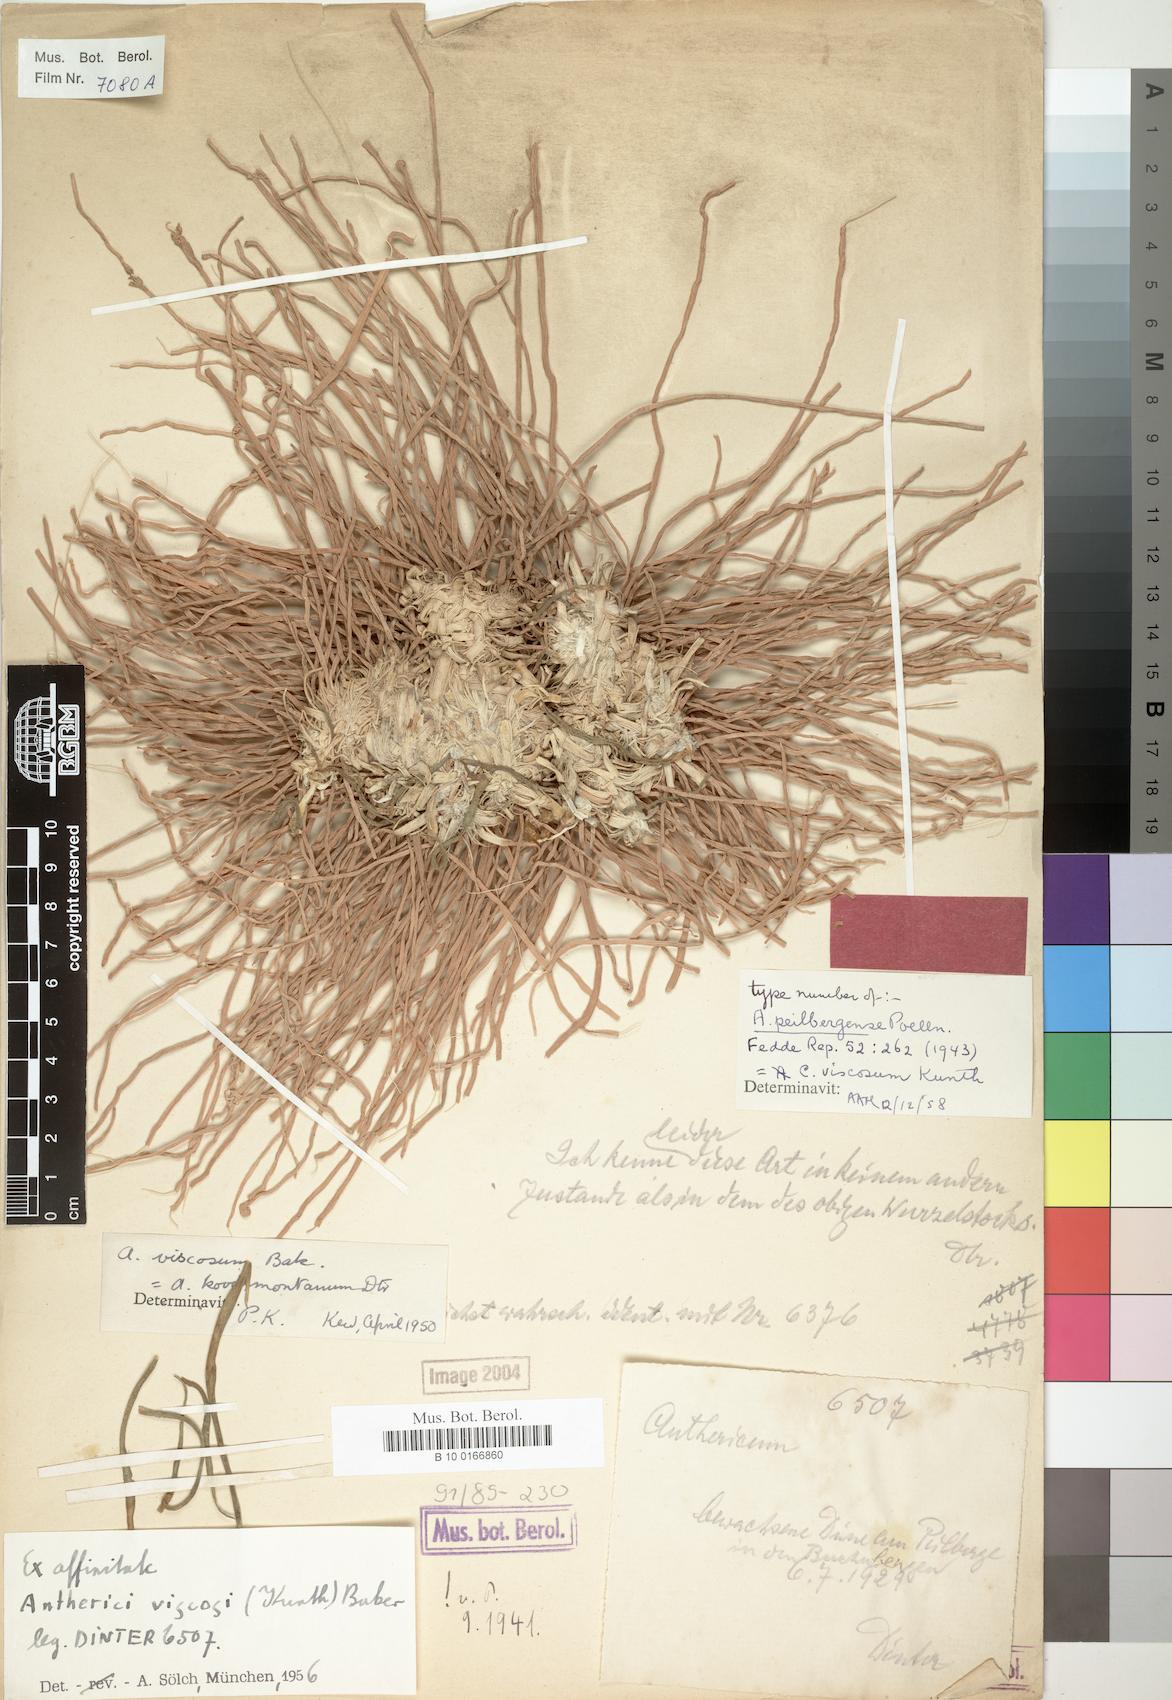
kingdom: Plantae
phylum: Tracheophyta
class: Liliopsida
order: Asparagales
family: Asparagaceae
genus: Chlorophytum
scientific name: Chlorophytum viscosum
